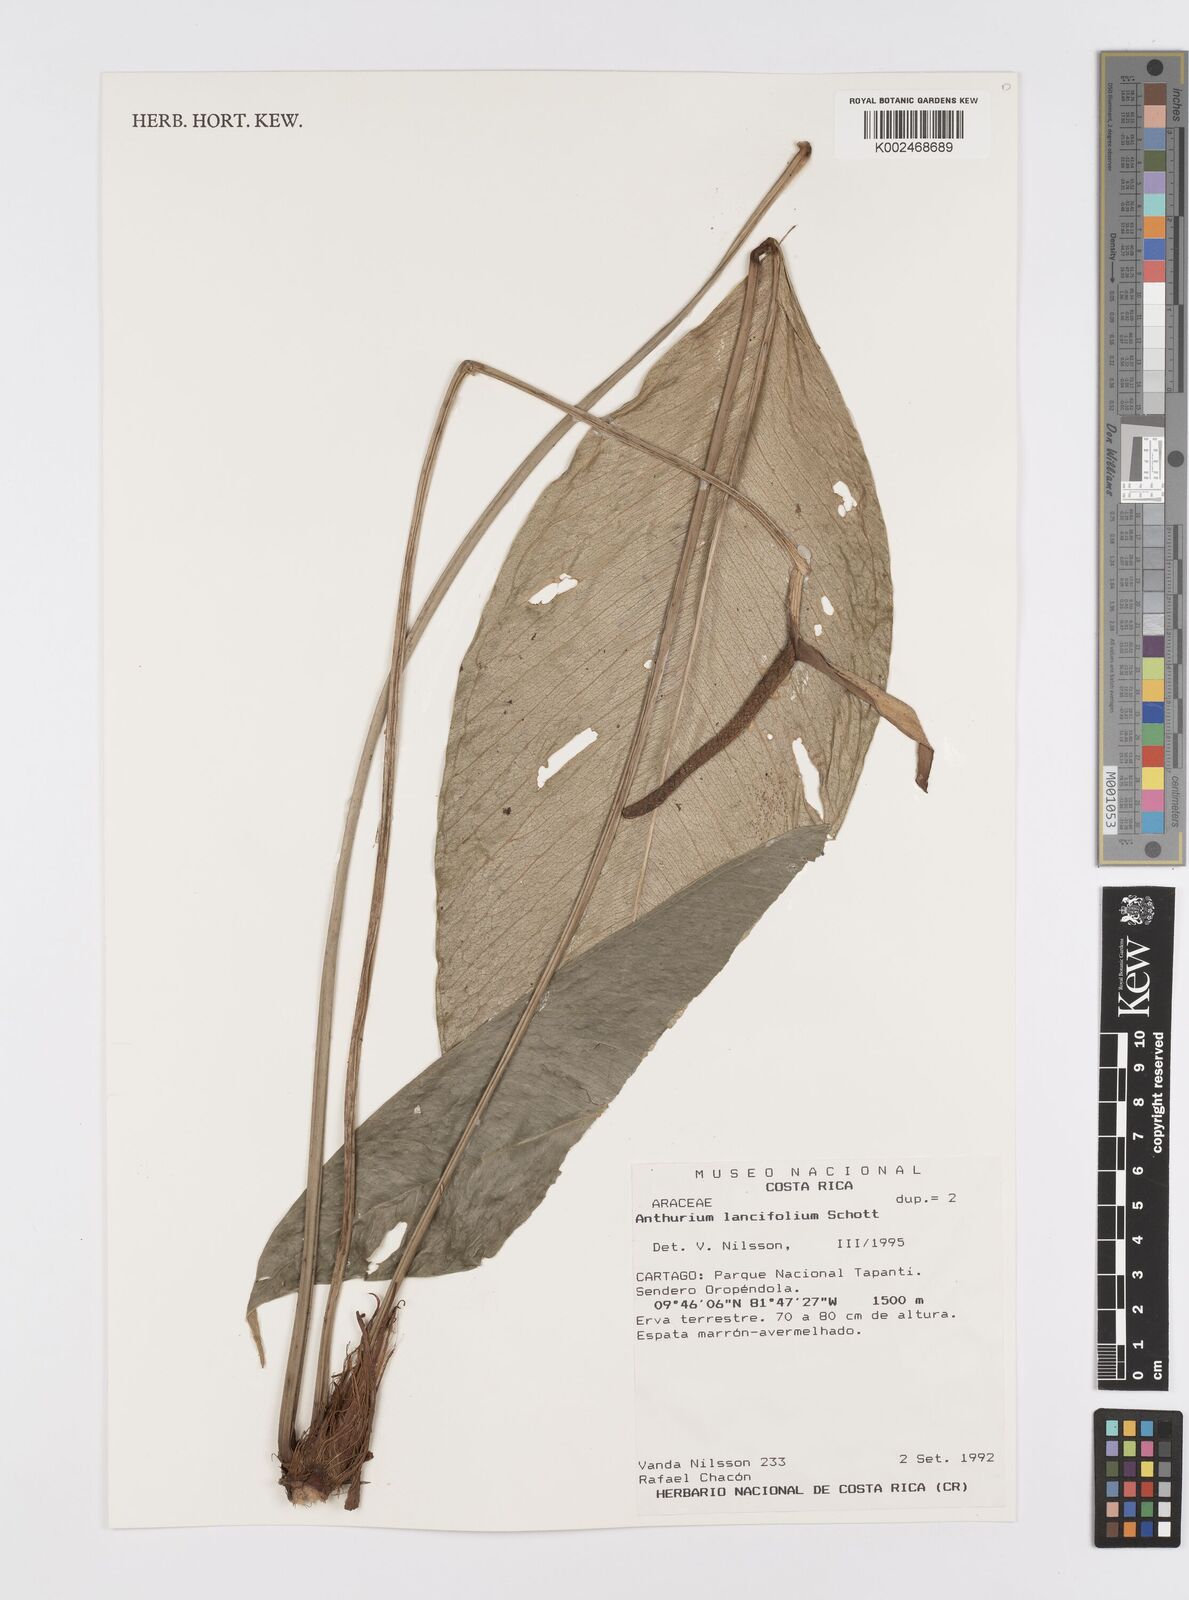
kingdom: Plantae
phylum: Tracheophyta
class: Liliopsida
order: Alismatales
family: Araceae
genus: Anthurium
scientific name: Anthurium lancifolium
